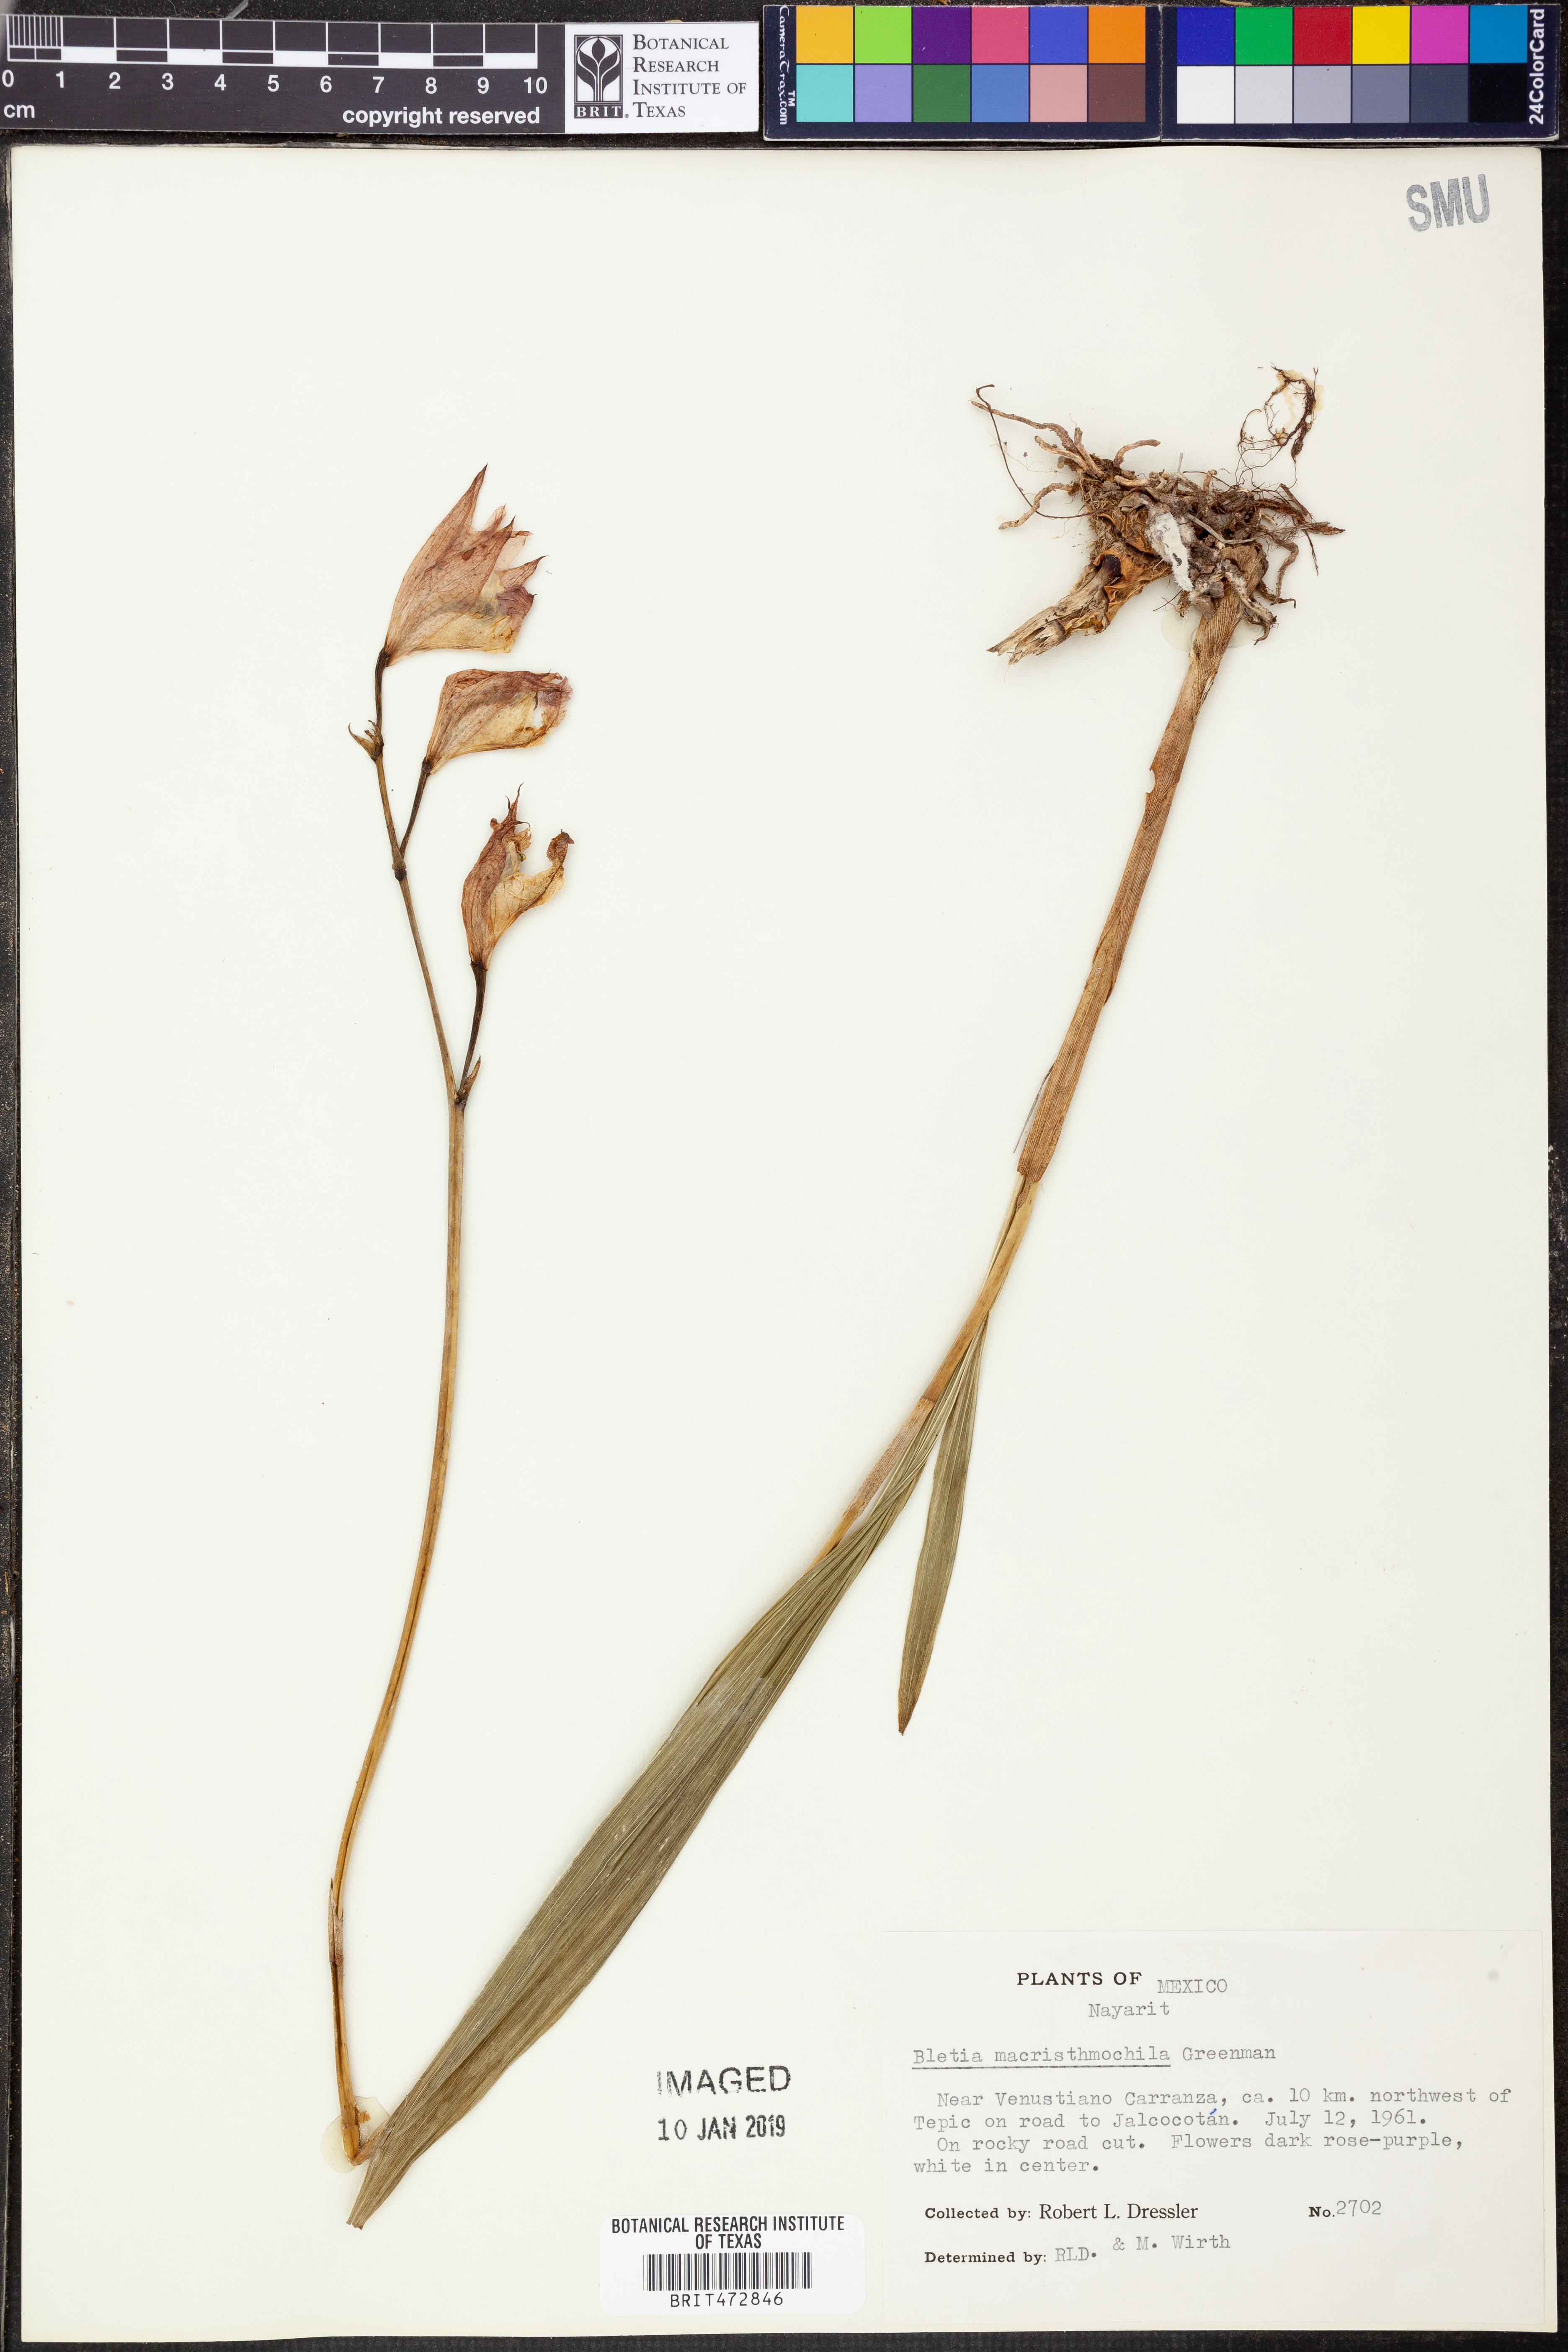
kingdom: Plantae
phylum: Tracheophyta
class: Liliopsida
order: Asparagales
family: Orchidaceae
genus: Bletia
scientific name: Bletia macristhmochila
